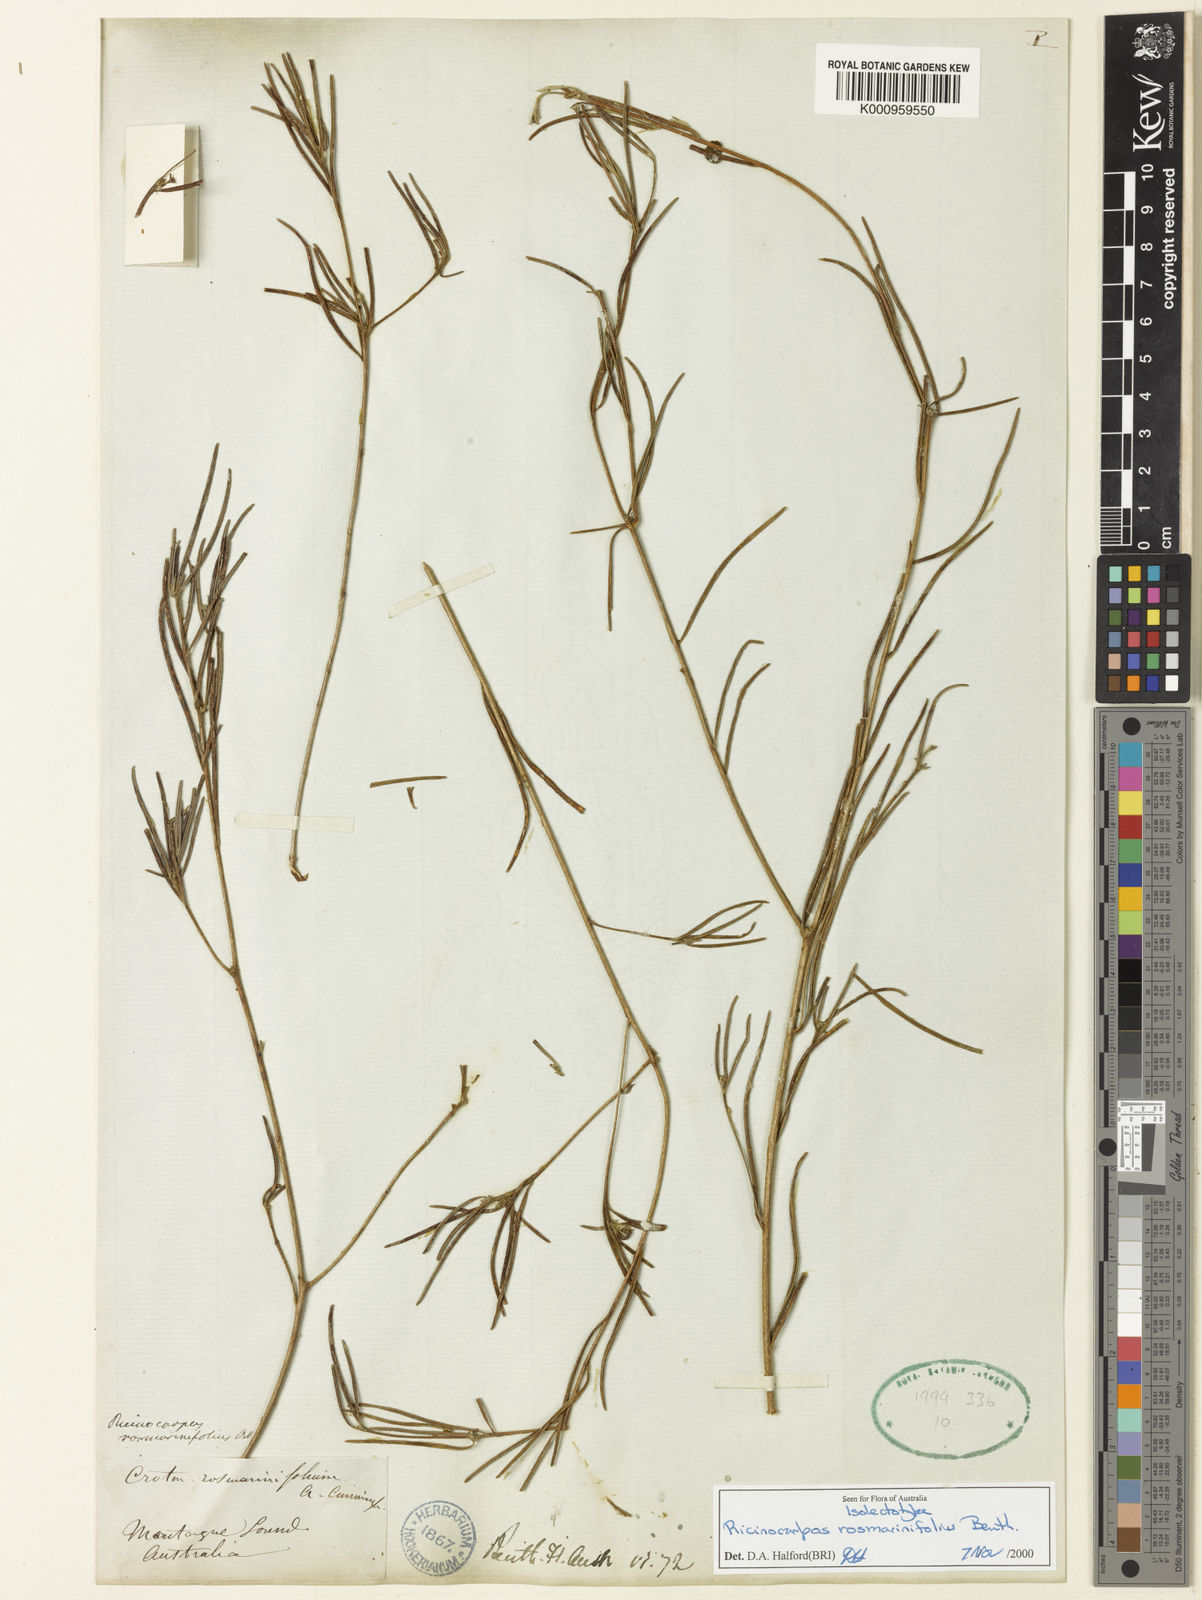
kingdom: Plantae
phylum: Tracheophyta
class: Magnoliopsida
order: Malpighiales
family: Euphorbiaceae
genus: Ricinocarpos
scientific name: Ricinocarpos rosmarinifolius
